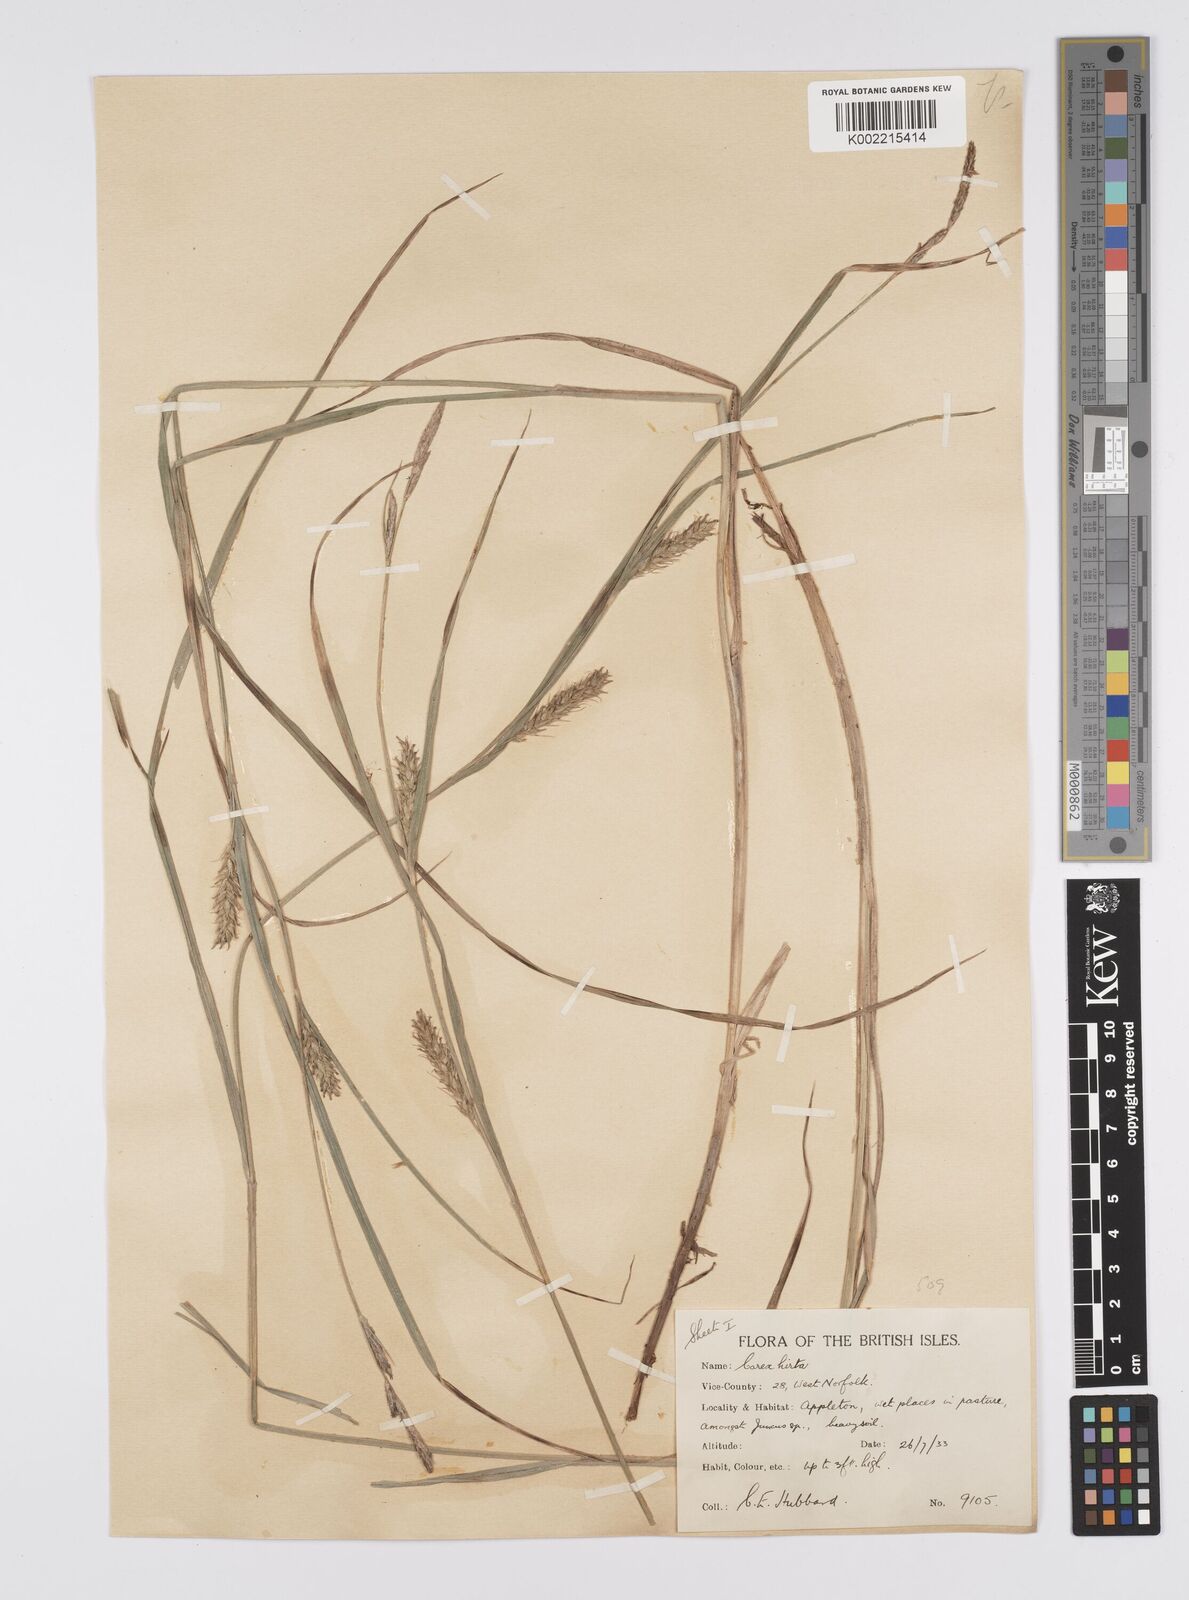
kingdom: Plantae
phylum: Tracheophyta
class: Liliopsida
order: Poales
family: Cyperaceae
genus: Carex
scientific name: Carex hirta
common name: Hairy sedge
